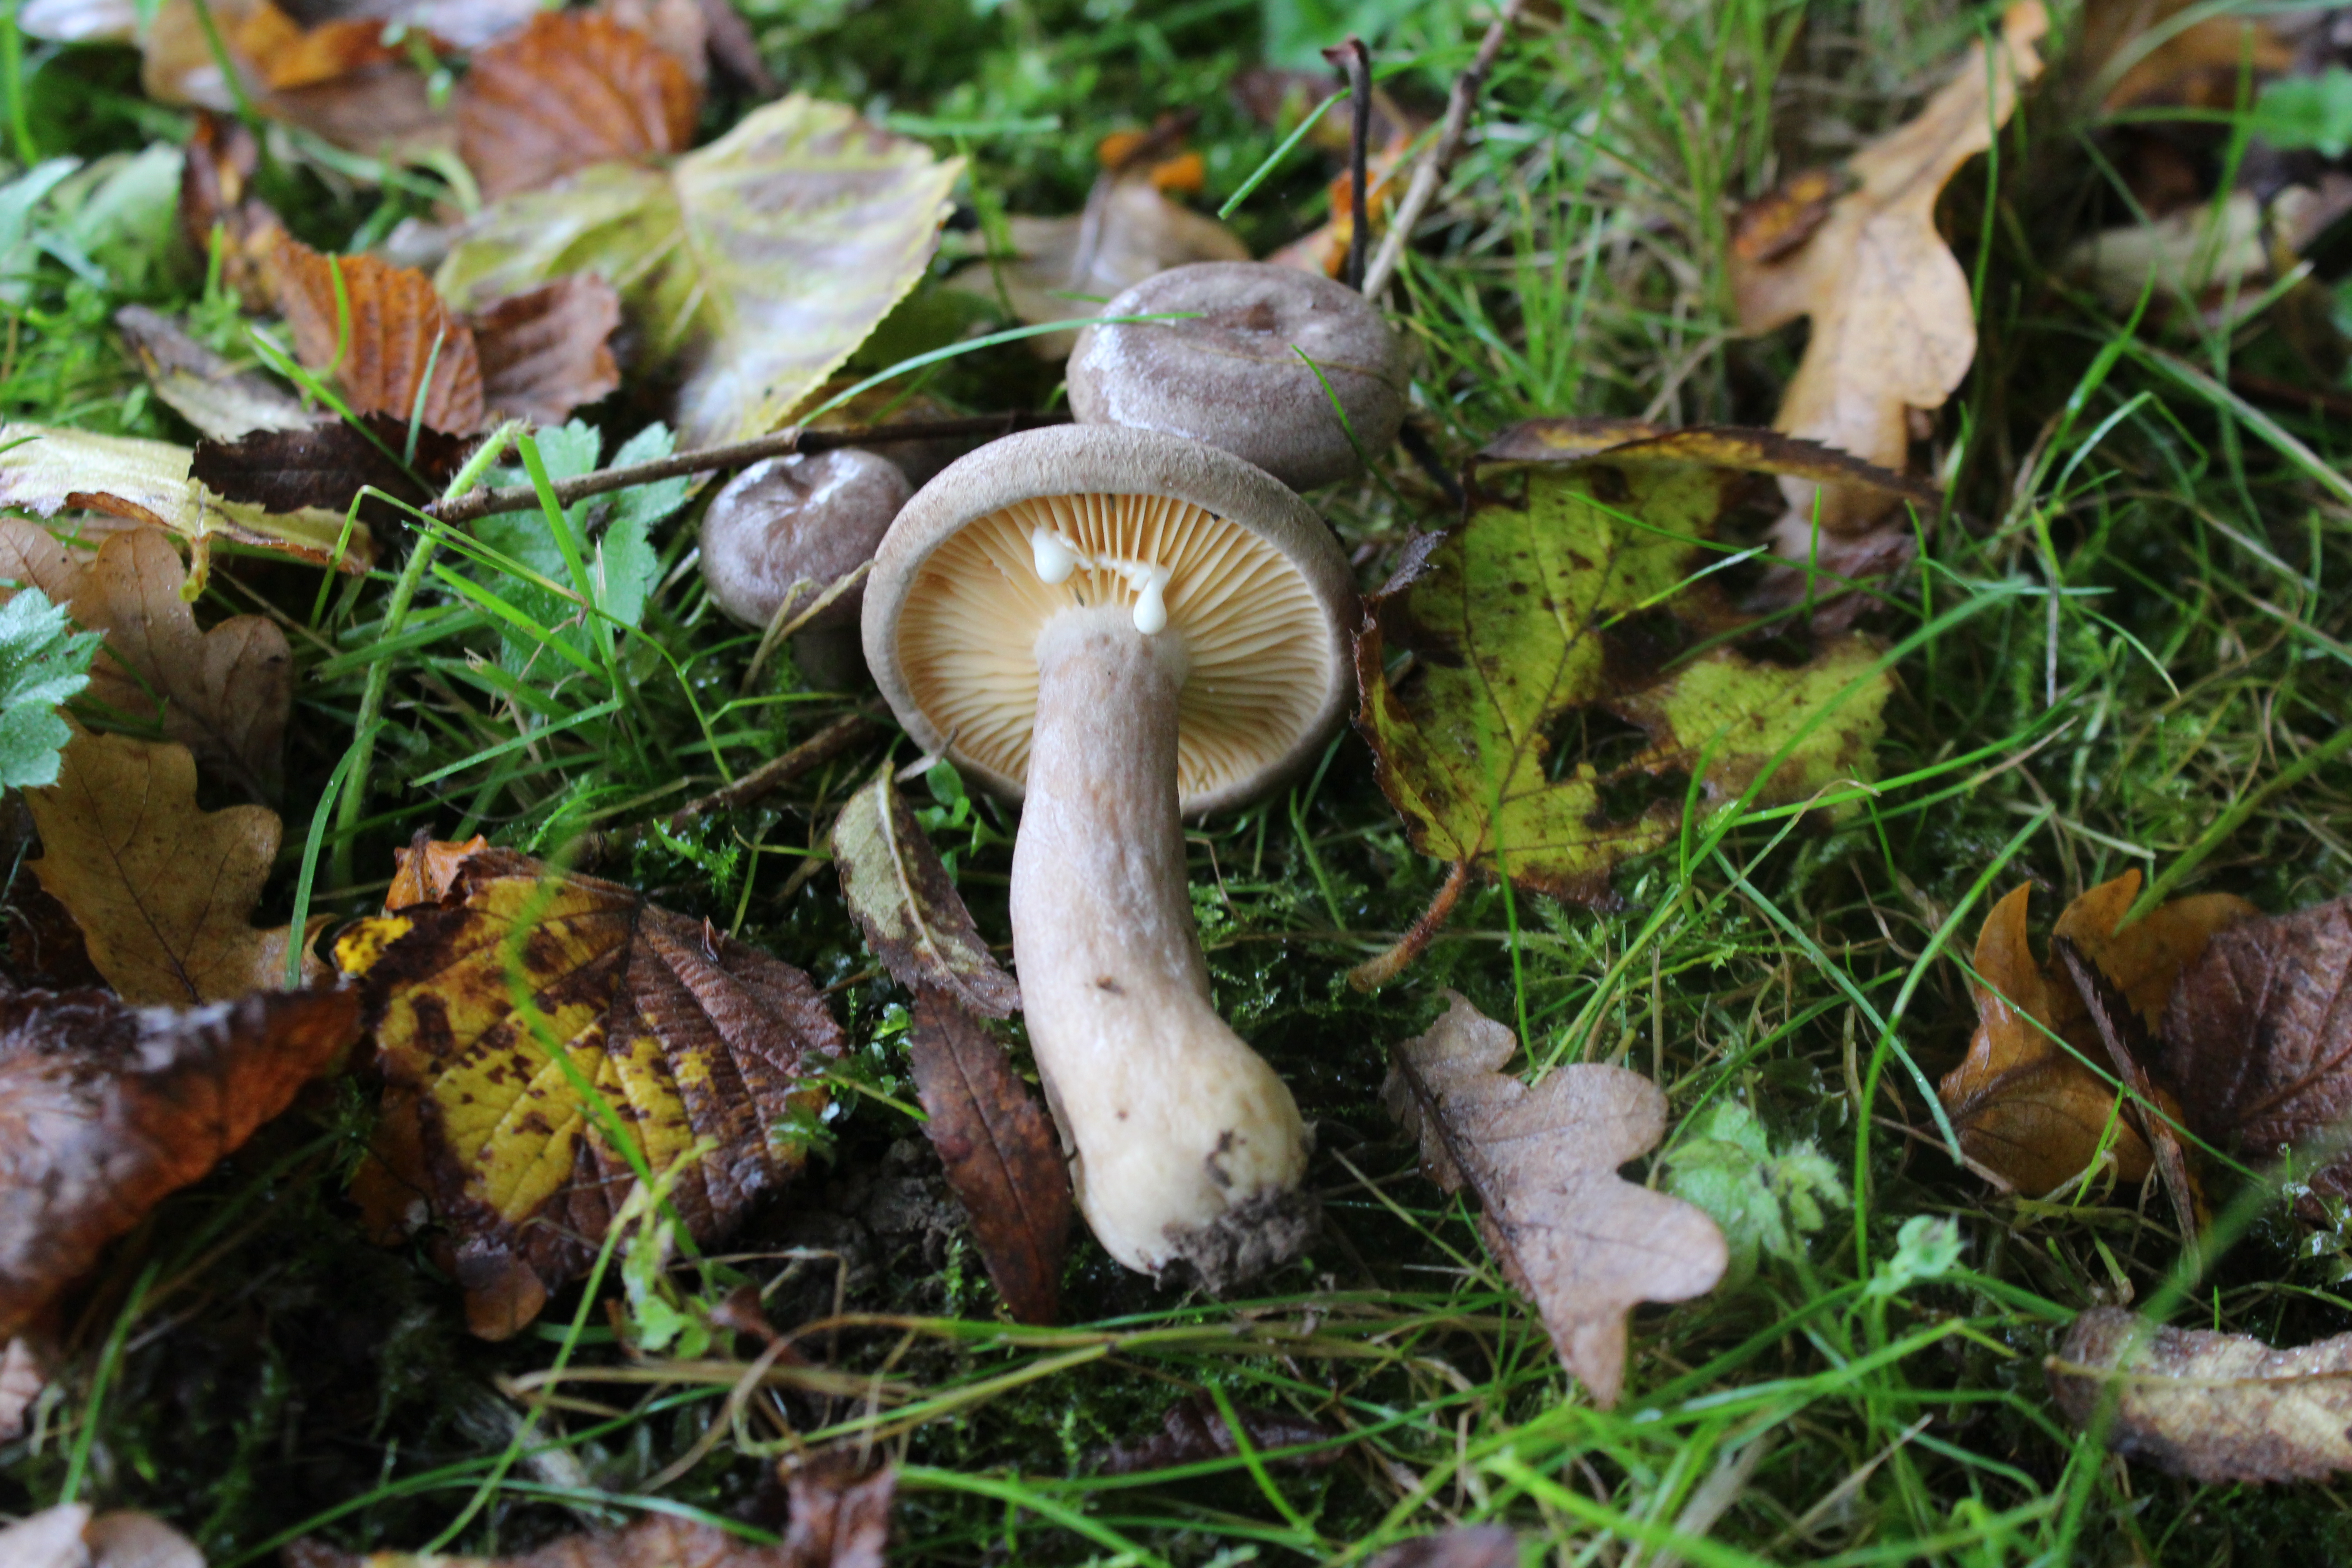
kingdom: Fungi
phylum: Basidiomycota
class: Agaricomycetes
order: Russulales
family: Russulaceae
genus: Lactarius
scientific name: Lactarius pyrogalus
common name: Fiery milkcap
